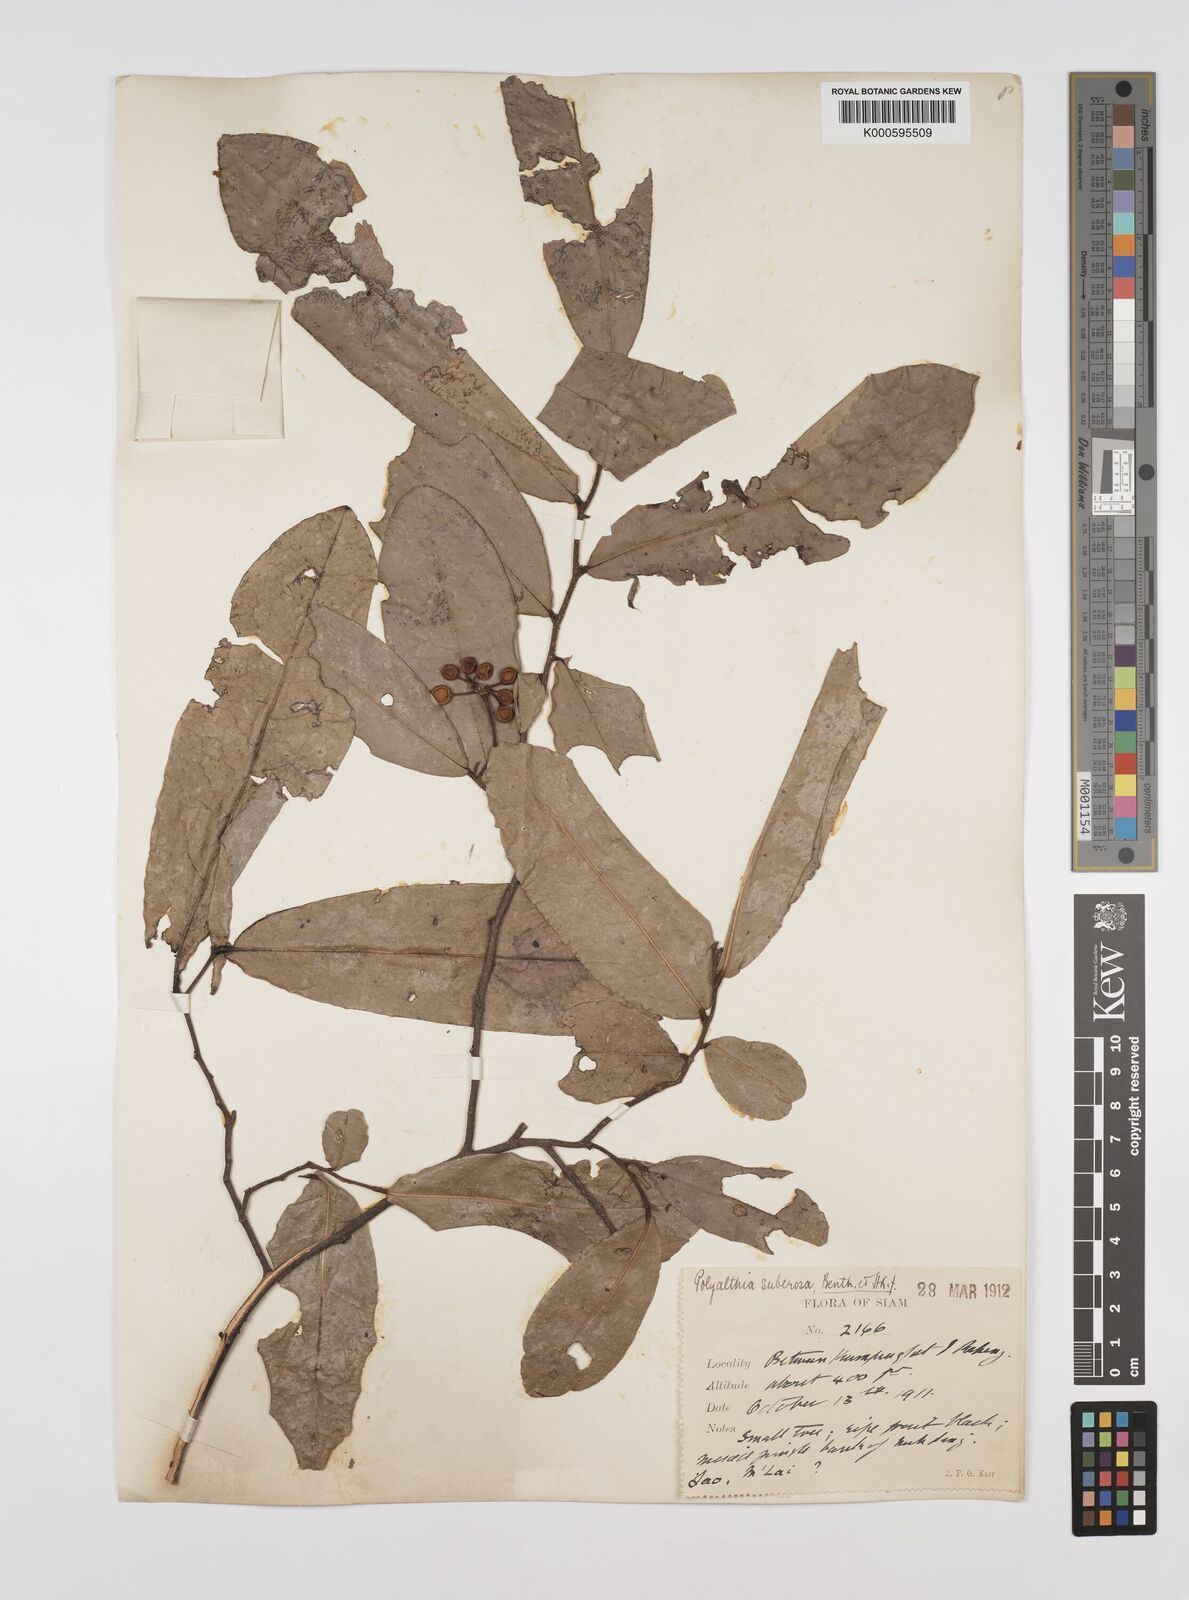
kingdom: Plantae
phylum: Tracheophyta
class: Magnoliopsida
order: Magnoliales
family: Annonaceae
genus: Polyalthia
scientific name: Polyalthia
